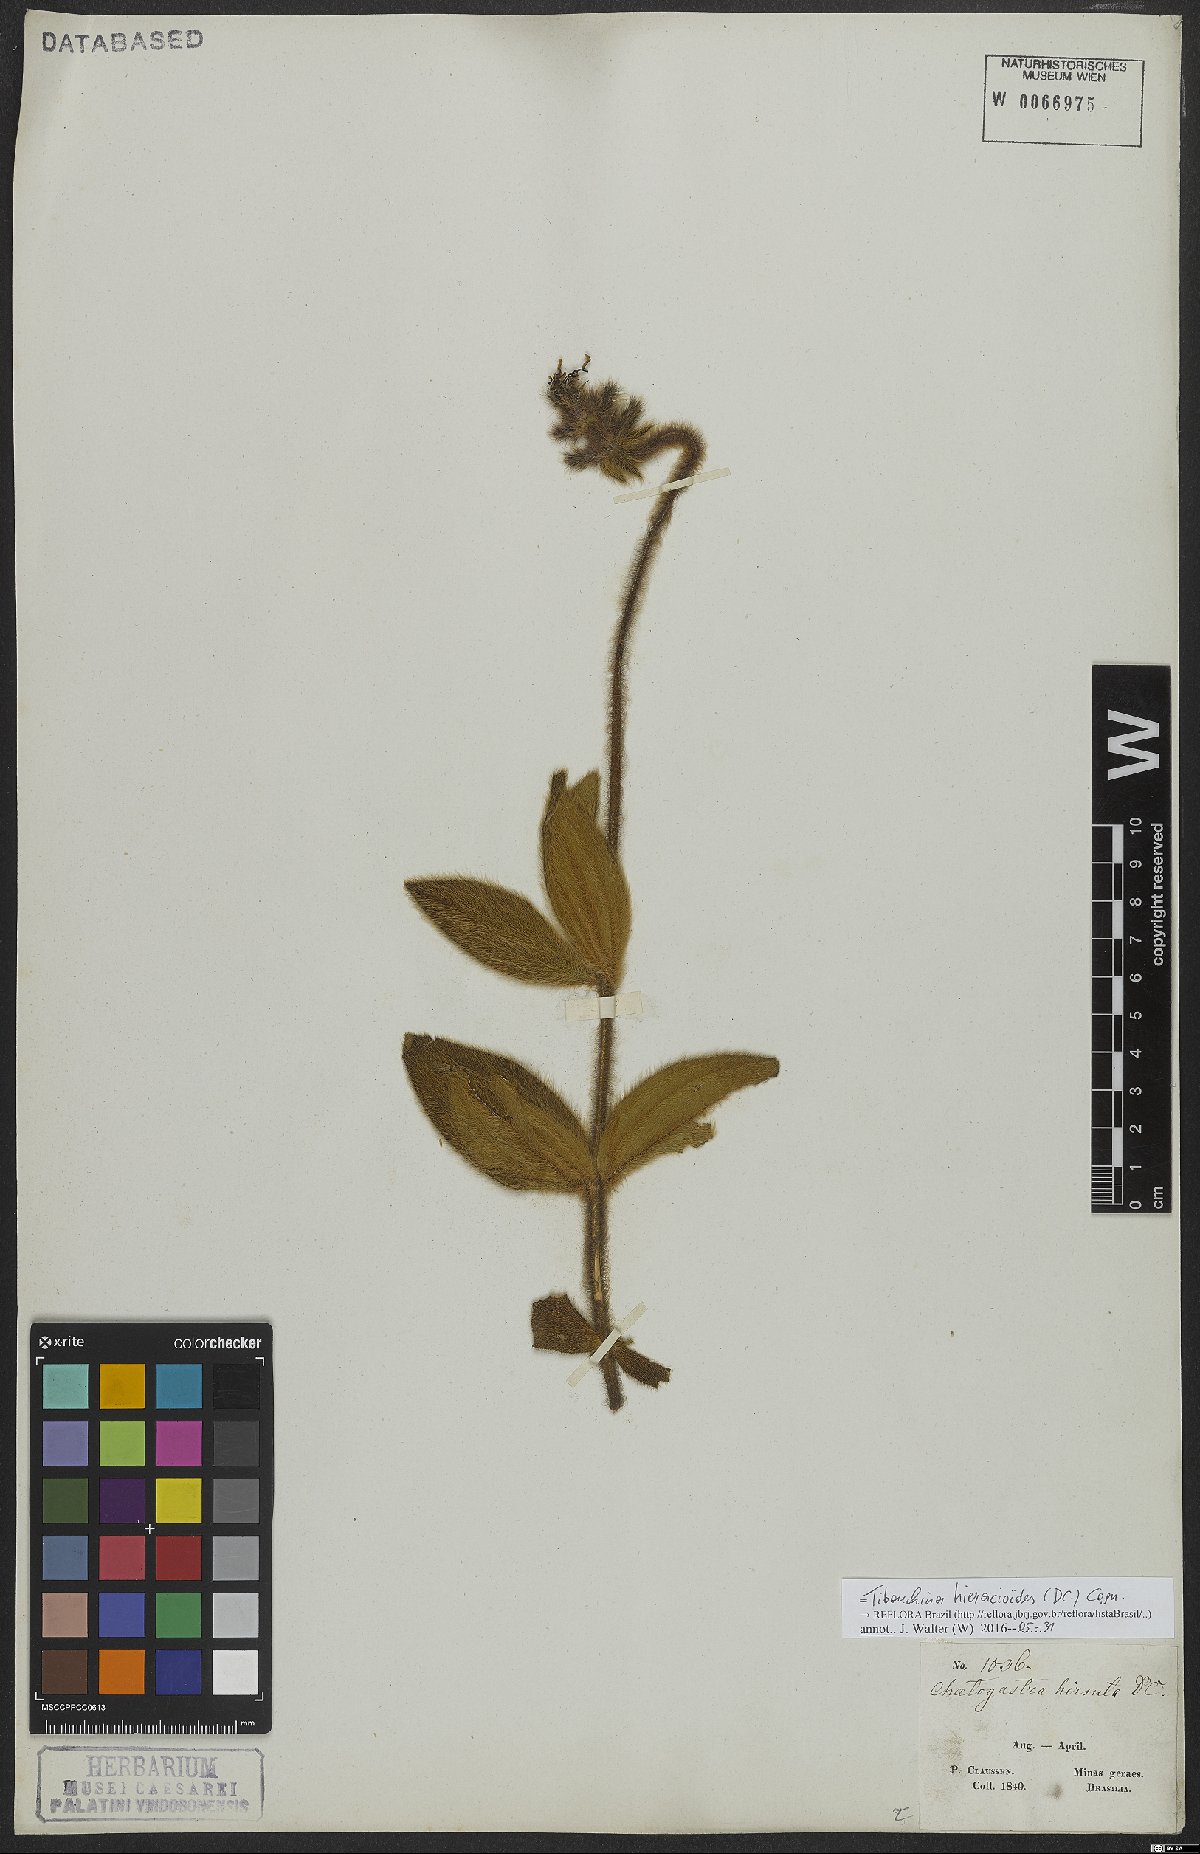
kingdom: Plantae
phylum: Tracheophyta
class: Magnoliopsida
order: Myrtales
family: Melastomataceae
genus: Chaetogastra
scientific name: Chaetogastra hieracioides
